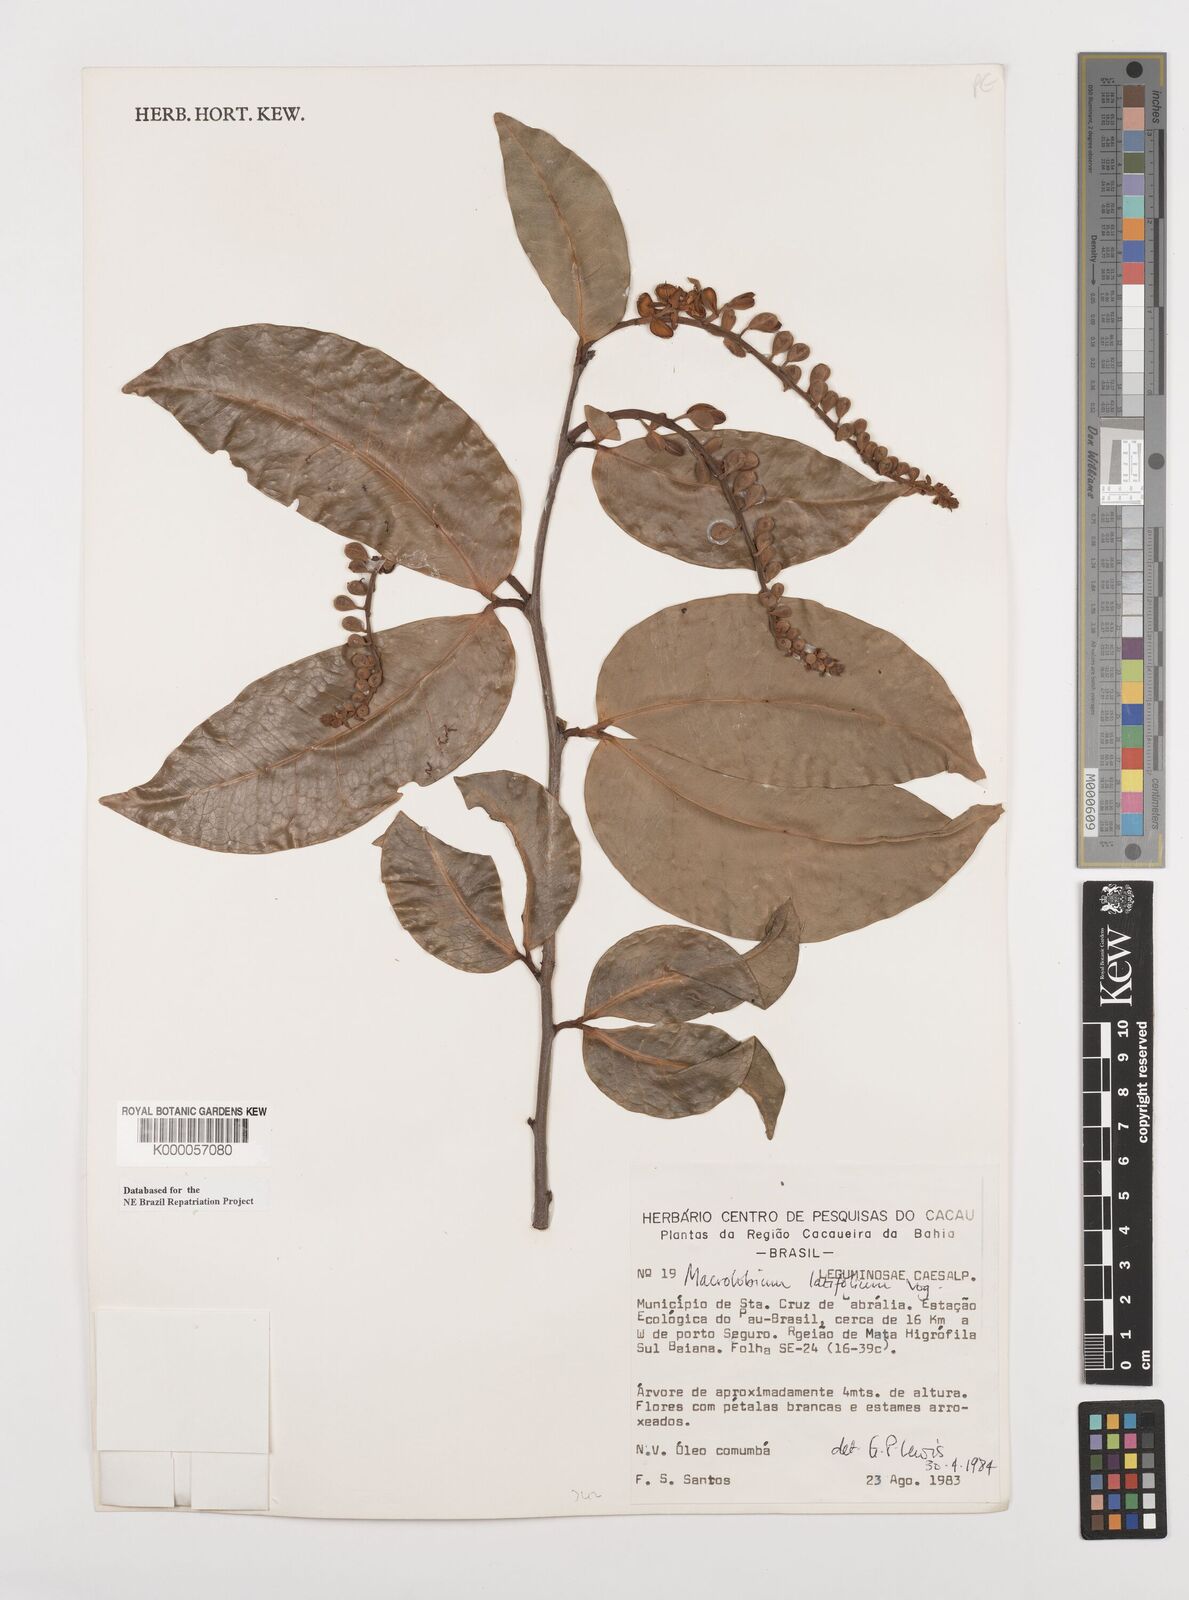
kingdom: Plantae
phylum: Tracheophyta
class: Magnoliopsida
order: Fabales
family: Fabaceae
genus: Macrolobium
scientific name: Macrolobium latifolium
